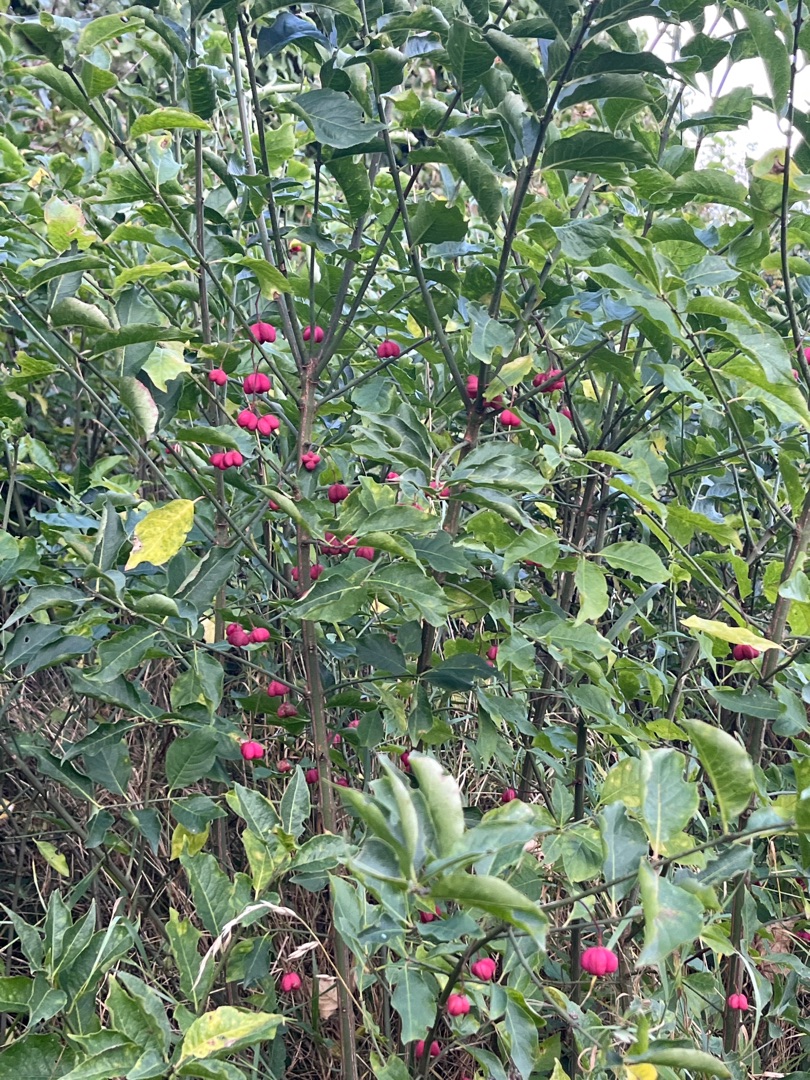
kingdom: Plantae
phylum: Tracheophyta
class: Magnoliopsida
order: Celastrales
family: Celastraceae
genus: Euonymus
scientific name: Euonymus europaeus
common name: Benved
